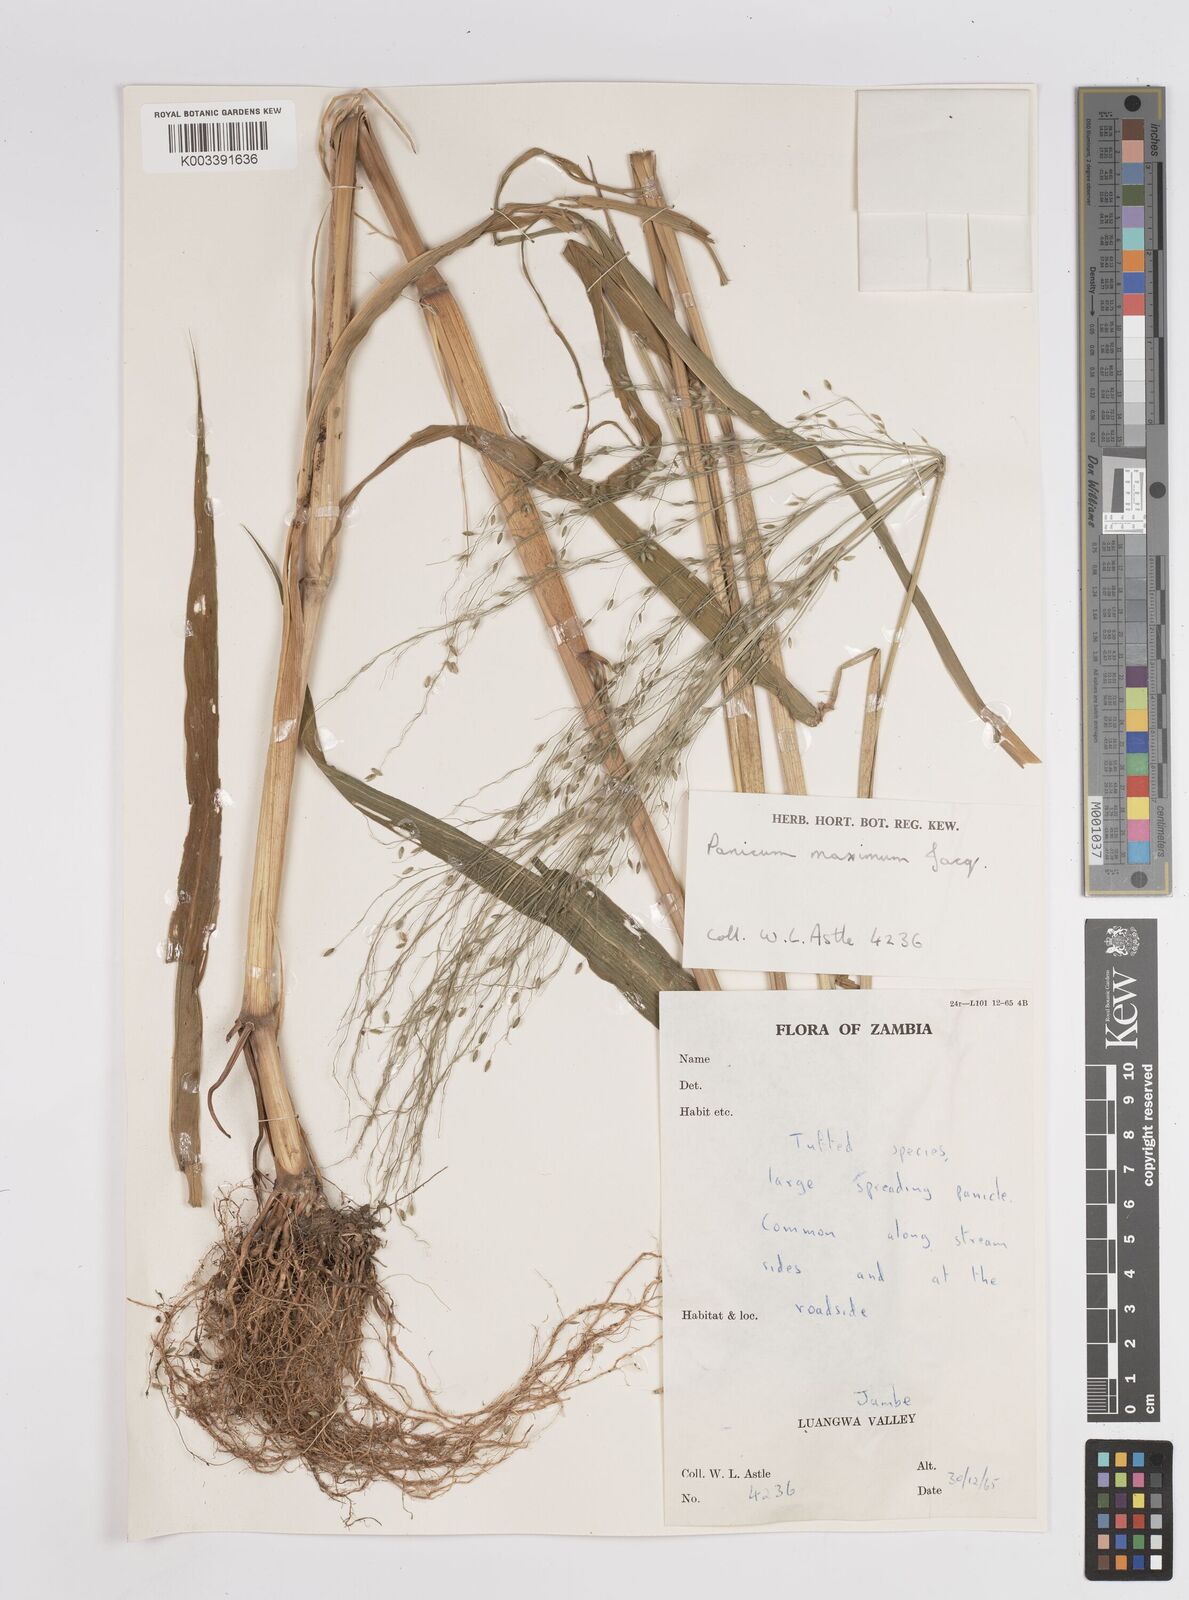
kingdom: Plantae
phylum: Tracheophyta
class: Liliopsida
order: Poales
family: Poaceae
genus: Megathyrsus
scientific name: Megathyrsus maximus
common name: Guineagrass
